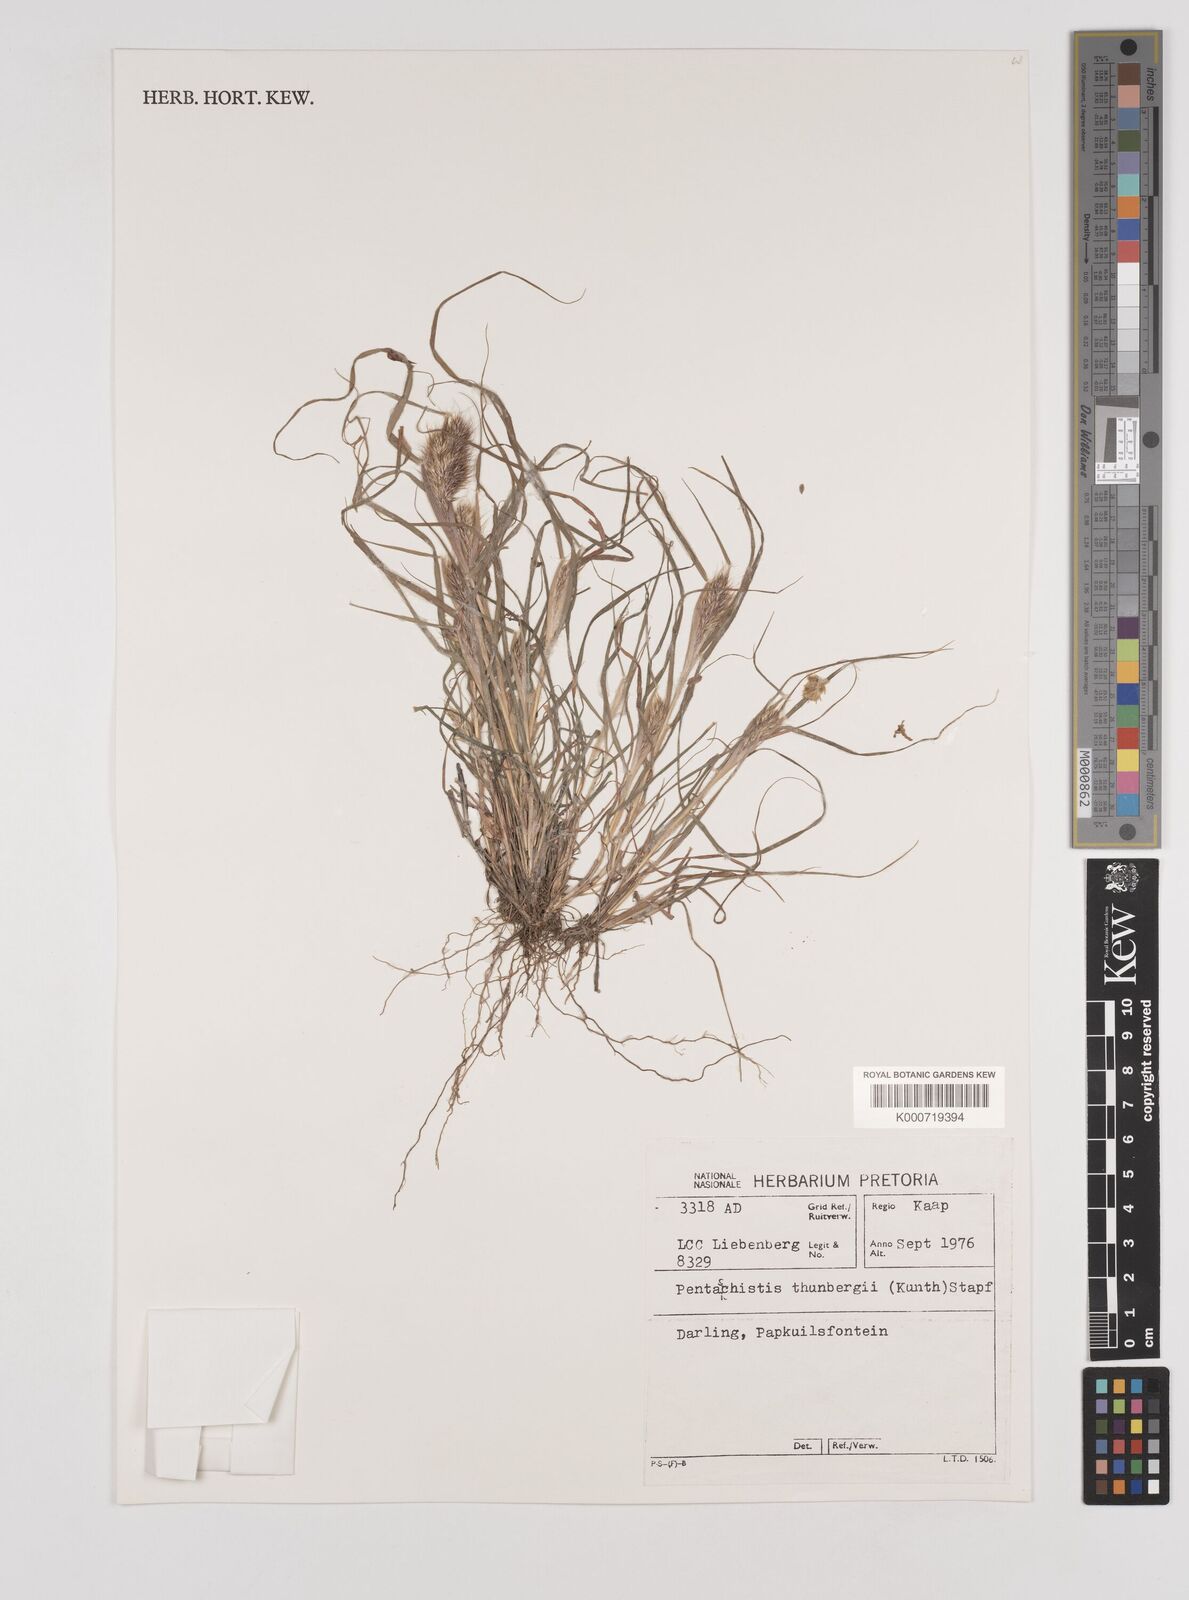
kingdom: Plantae
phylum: Tracheophyta
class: Liliopsida
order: Poales
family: Poaceae
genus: Pentameris
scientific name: Pentameris triseta
